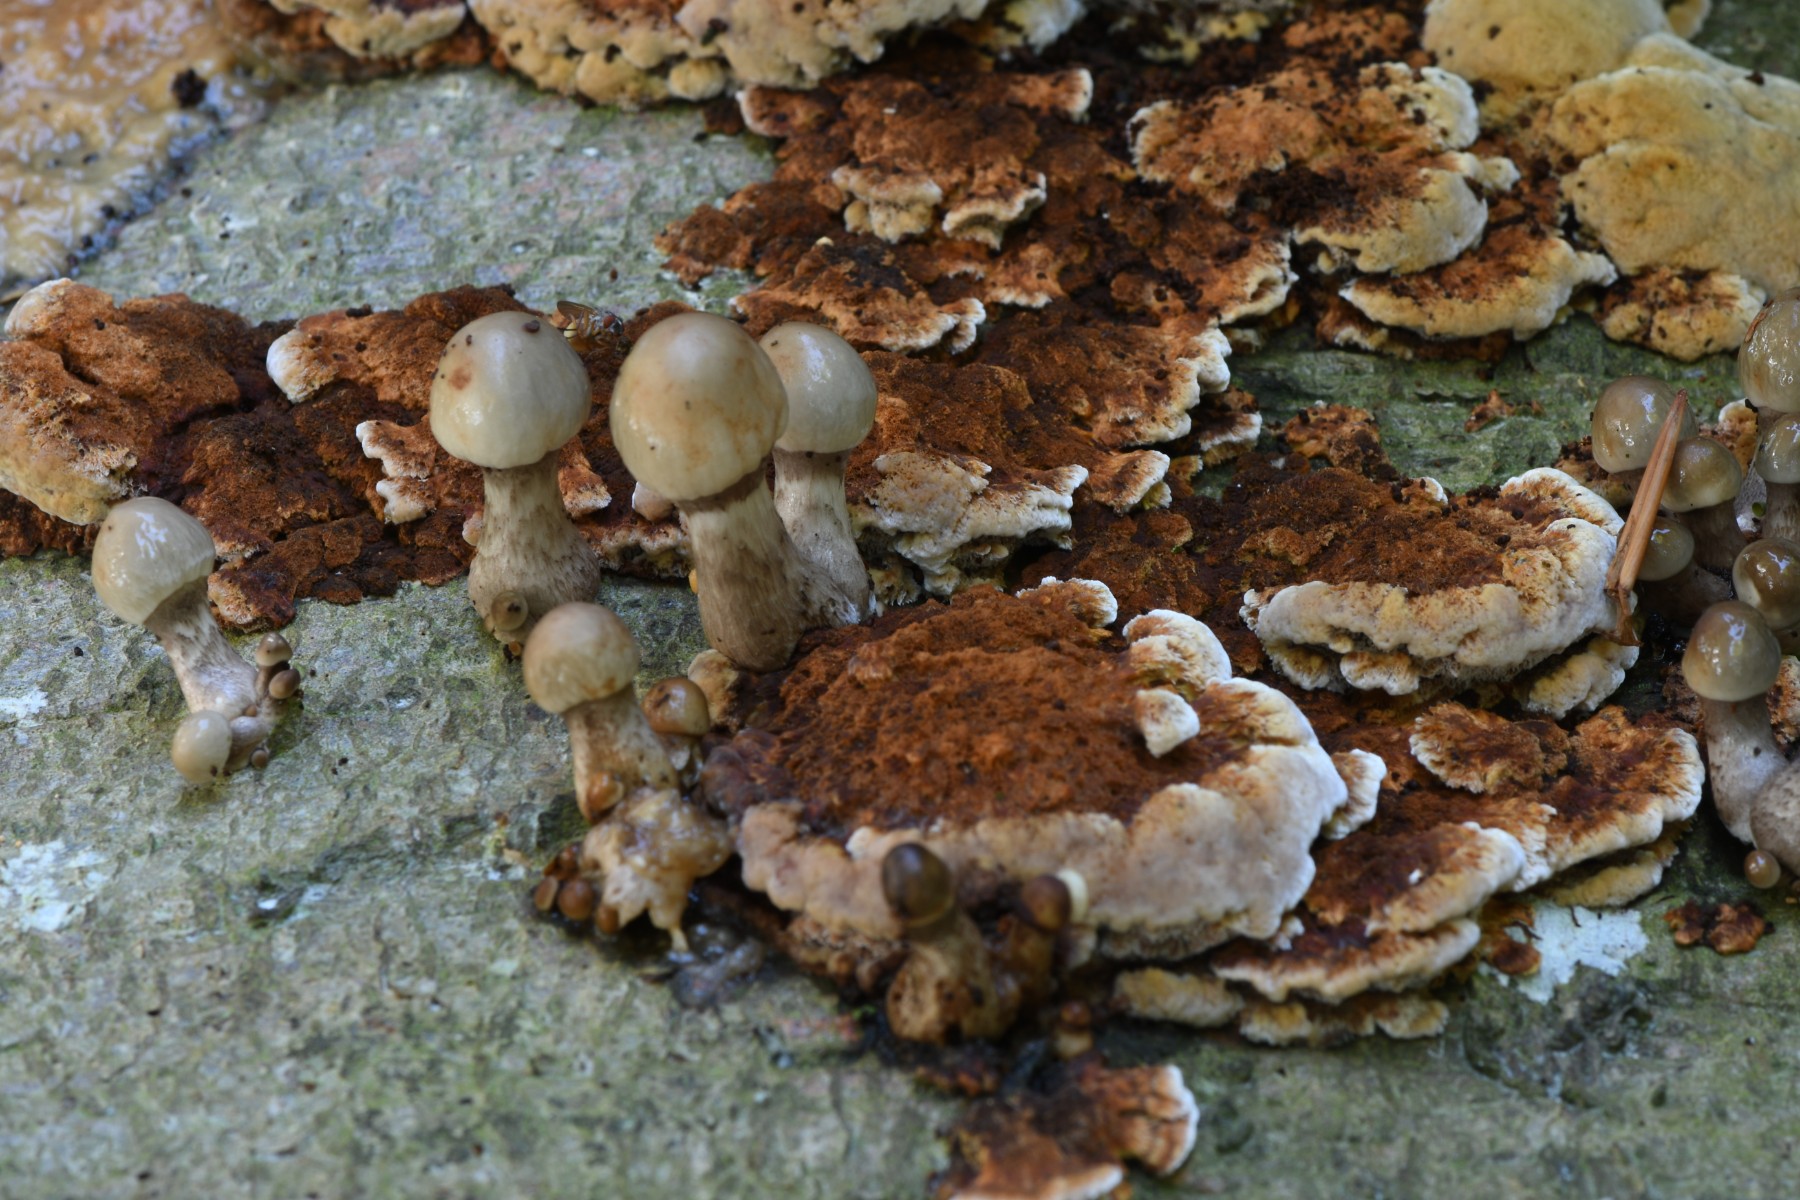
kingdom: Fungi
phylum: Basidiomycota
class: Agaricomycetes
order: Agaricales
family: Physalacriaceae
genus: Mucidula
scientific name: Mucidula mucida
